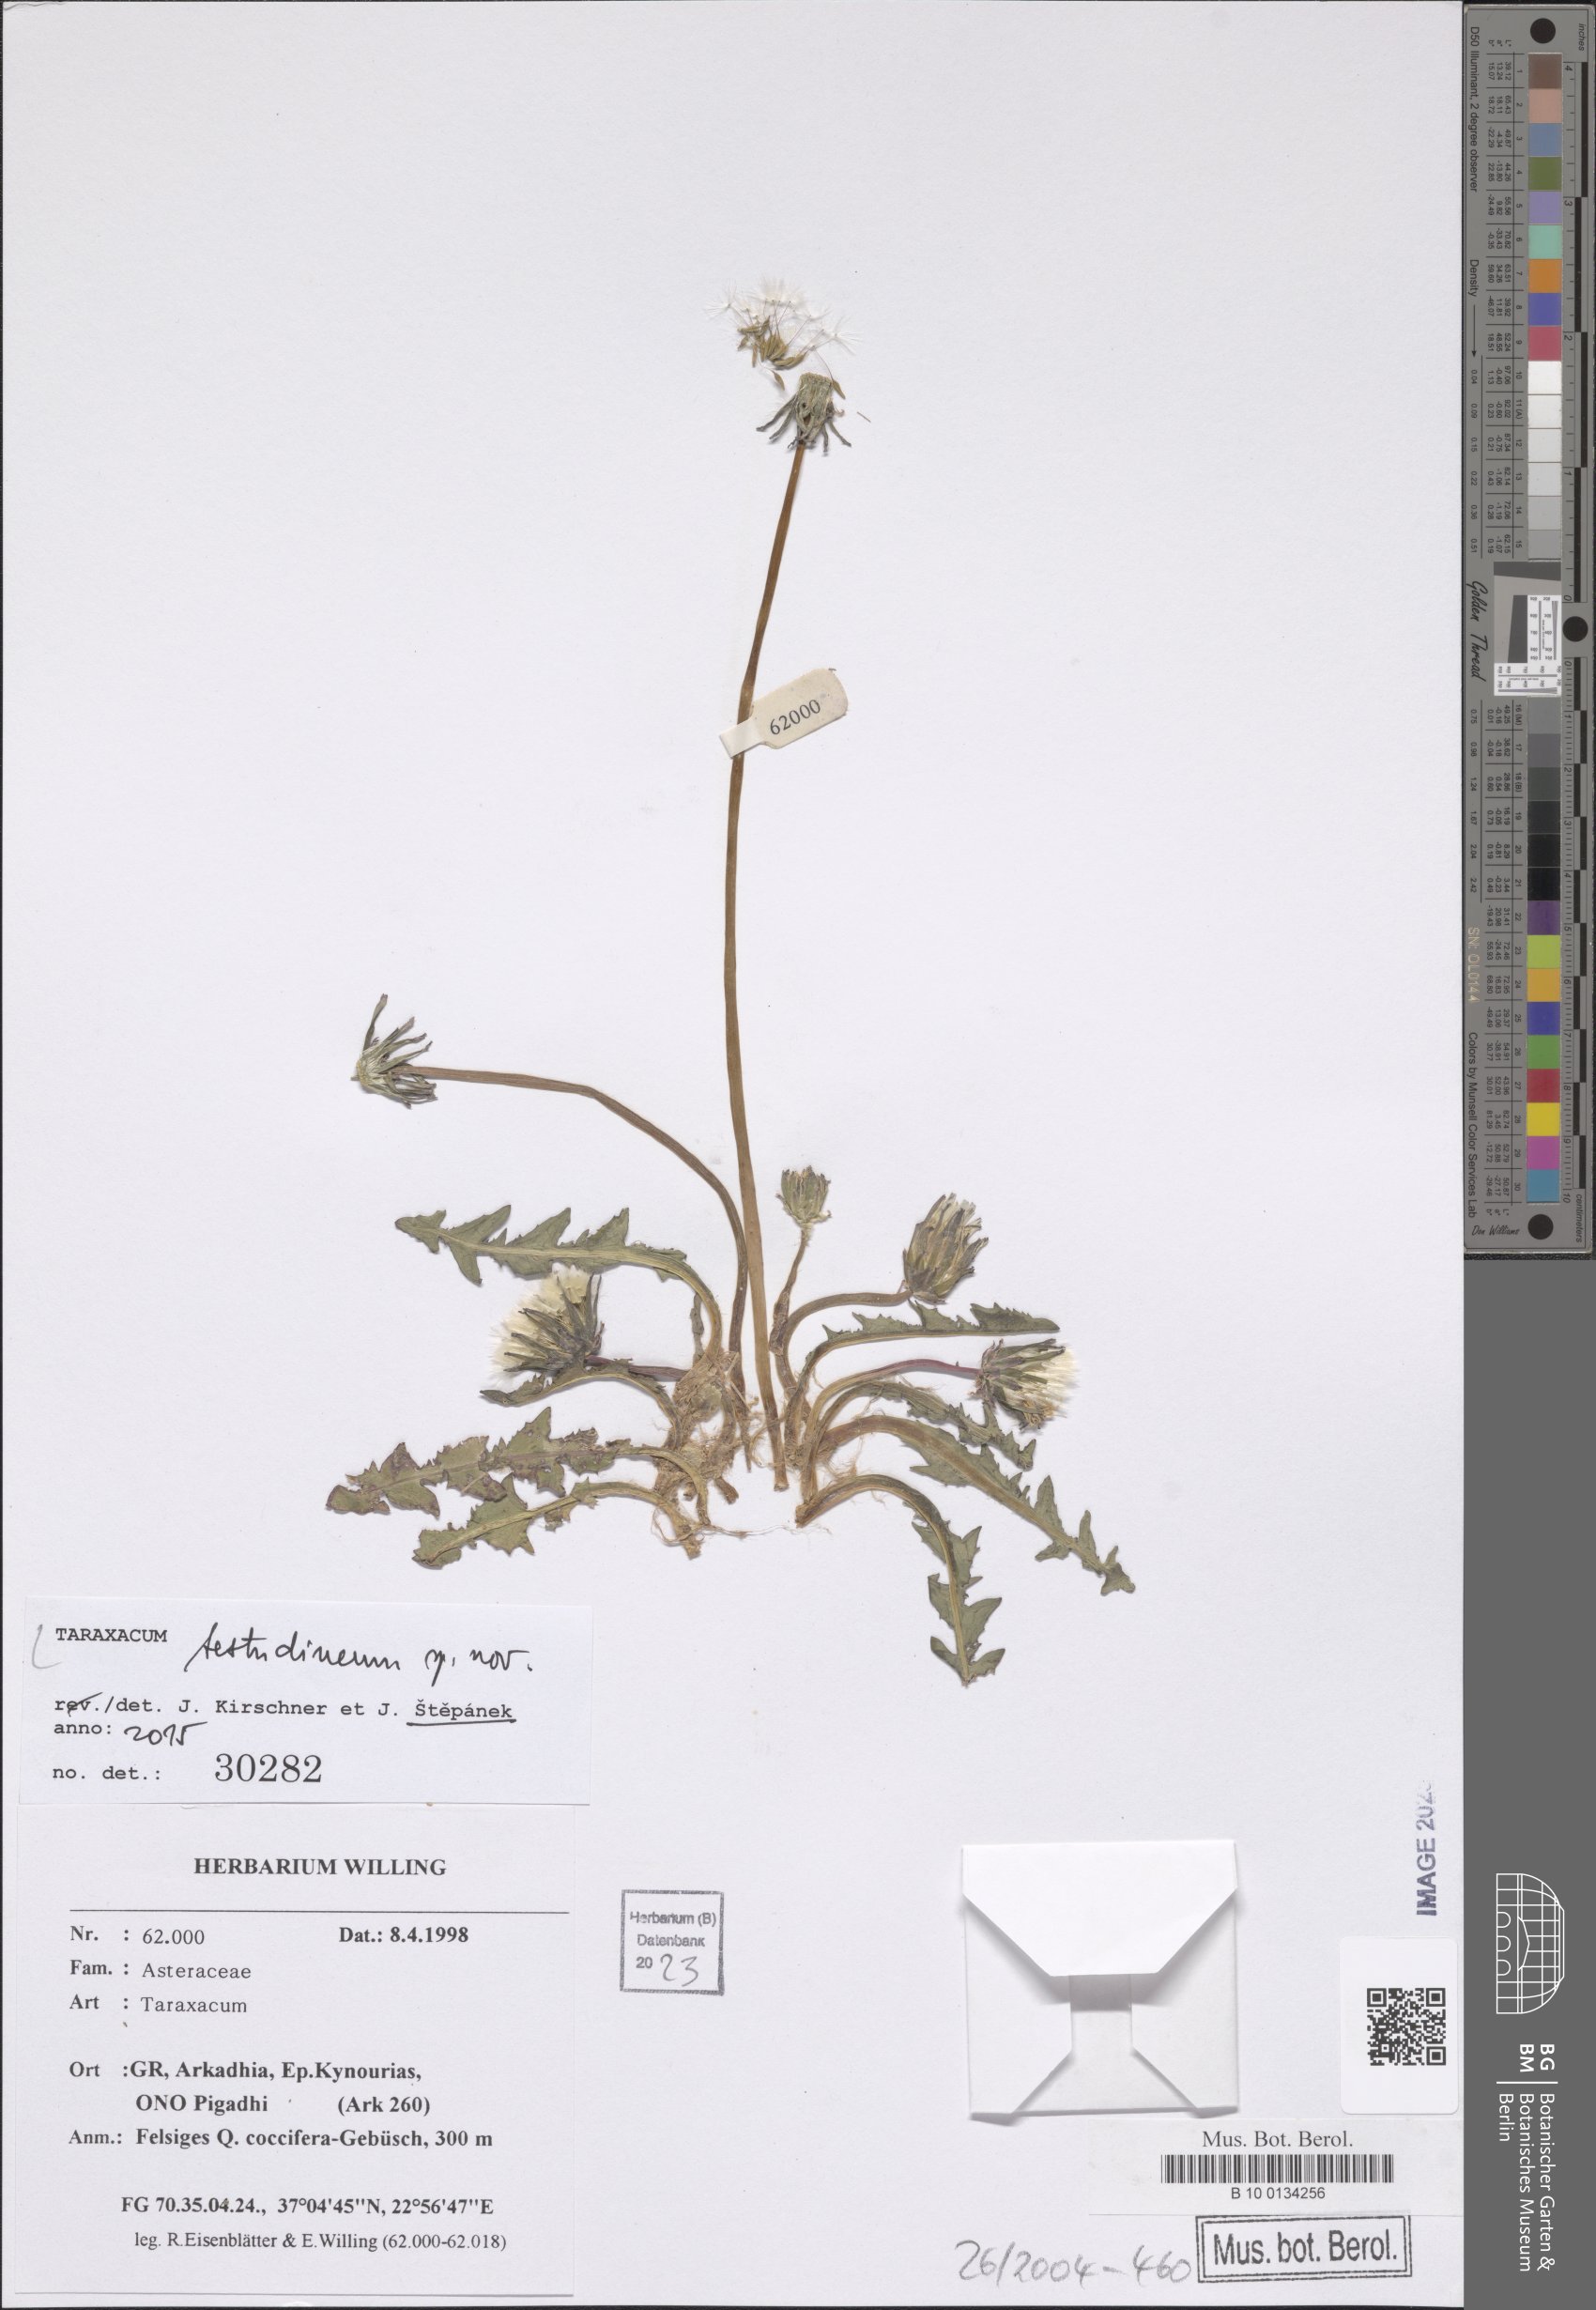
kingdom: Plantae
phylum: Tracheophyta
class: Magnoliopsida
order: Asterales
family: Asteraceae
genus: Taraxacum
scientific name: Taraxacum
